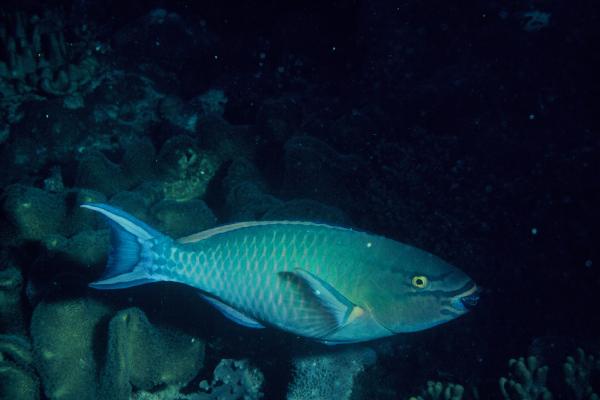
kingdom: Animalia
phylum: Chordata
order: Perciformes
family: Scaridae
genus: Scarus
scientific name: Scarus tricolor
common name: Tricolour parrotfish
